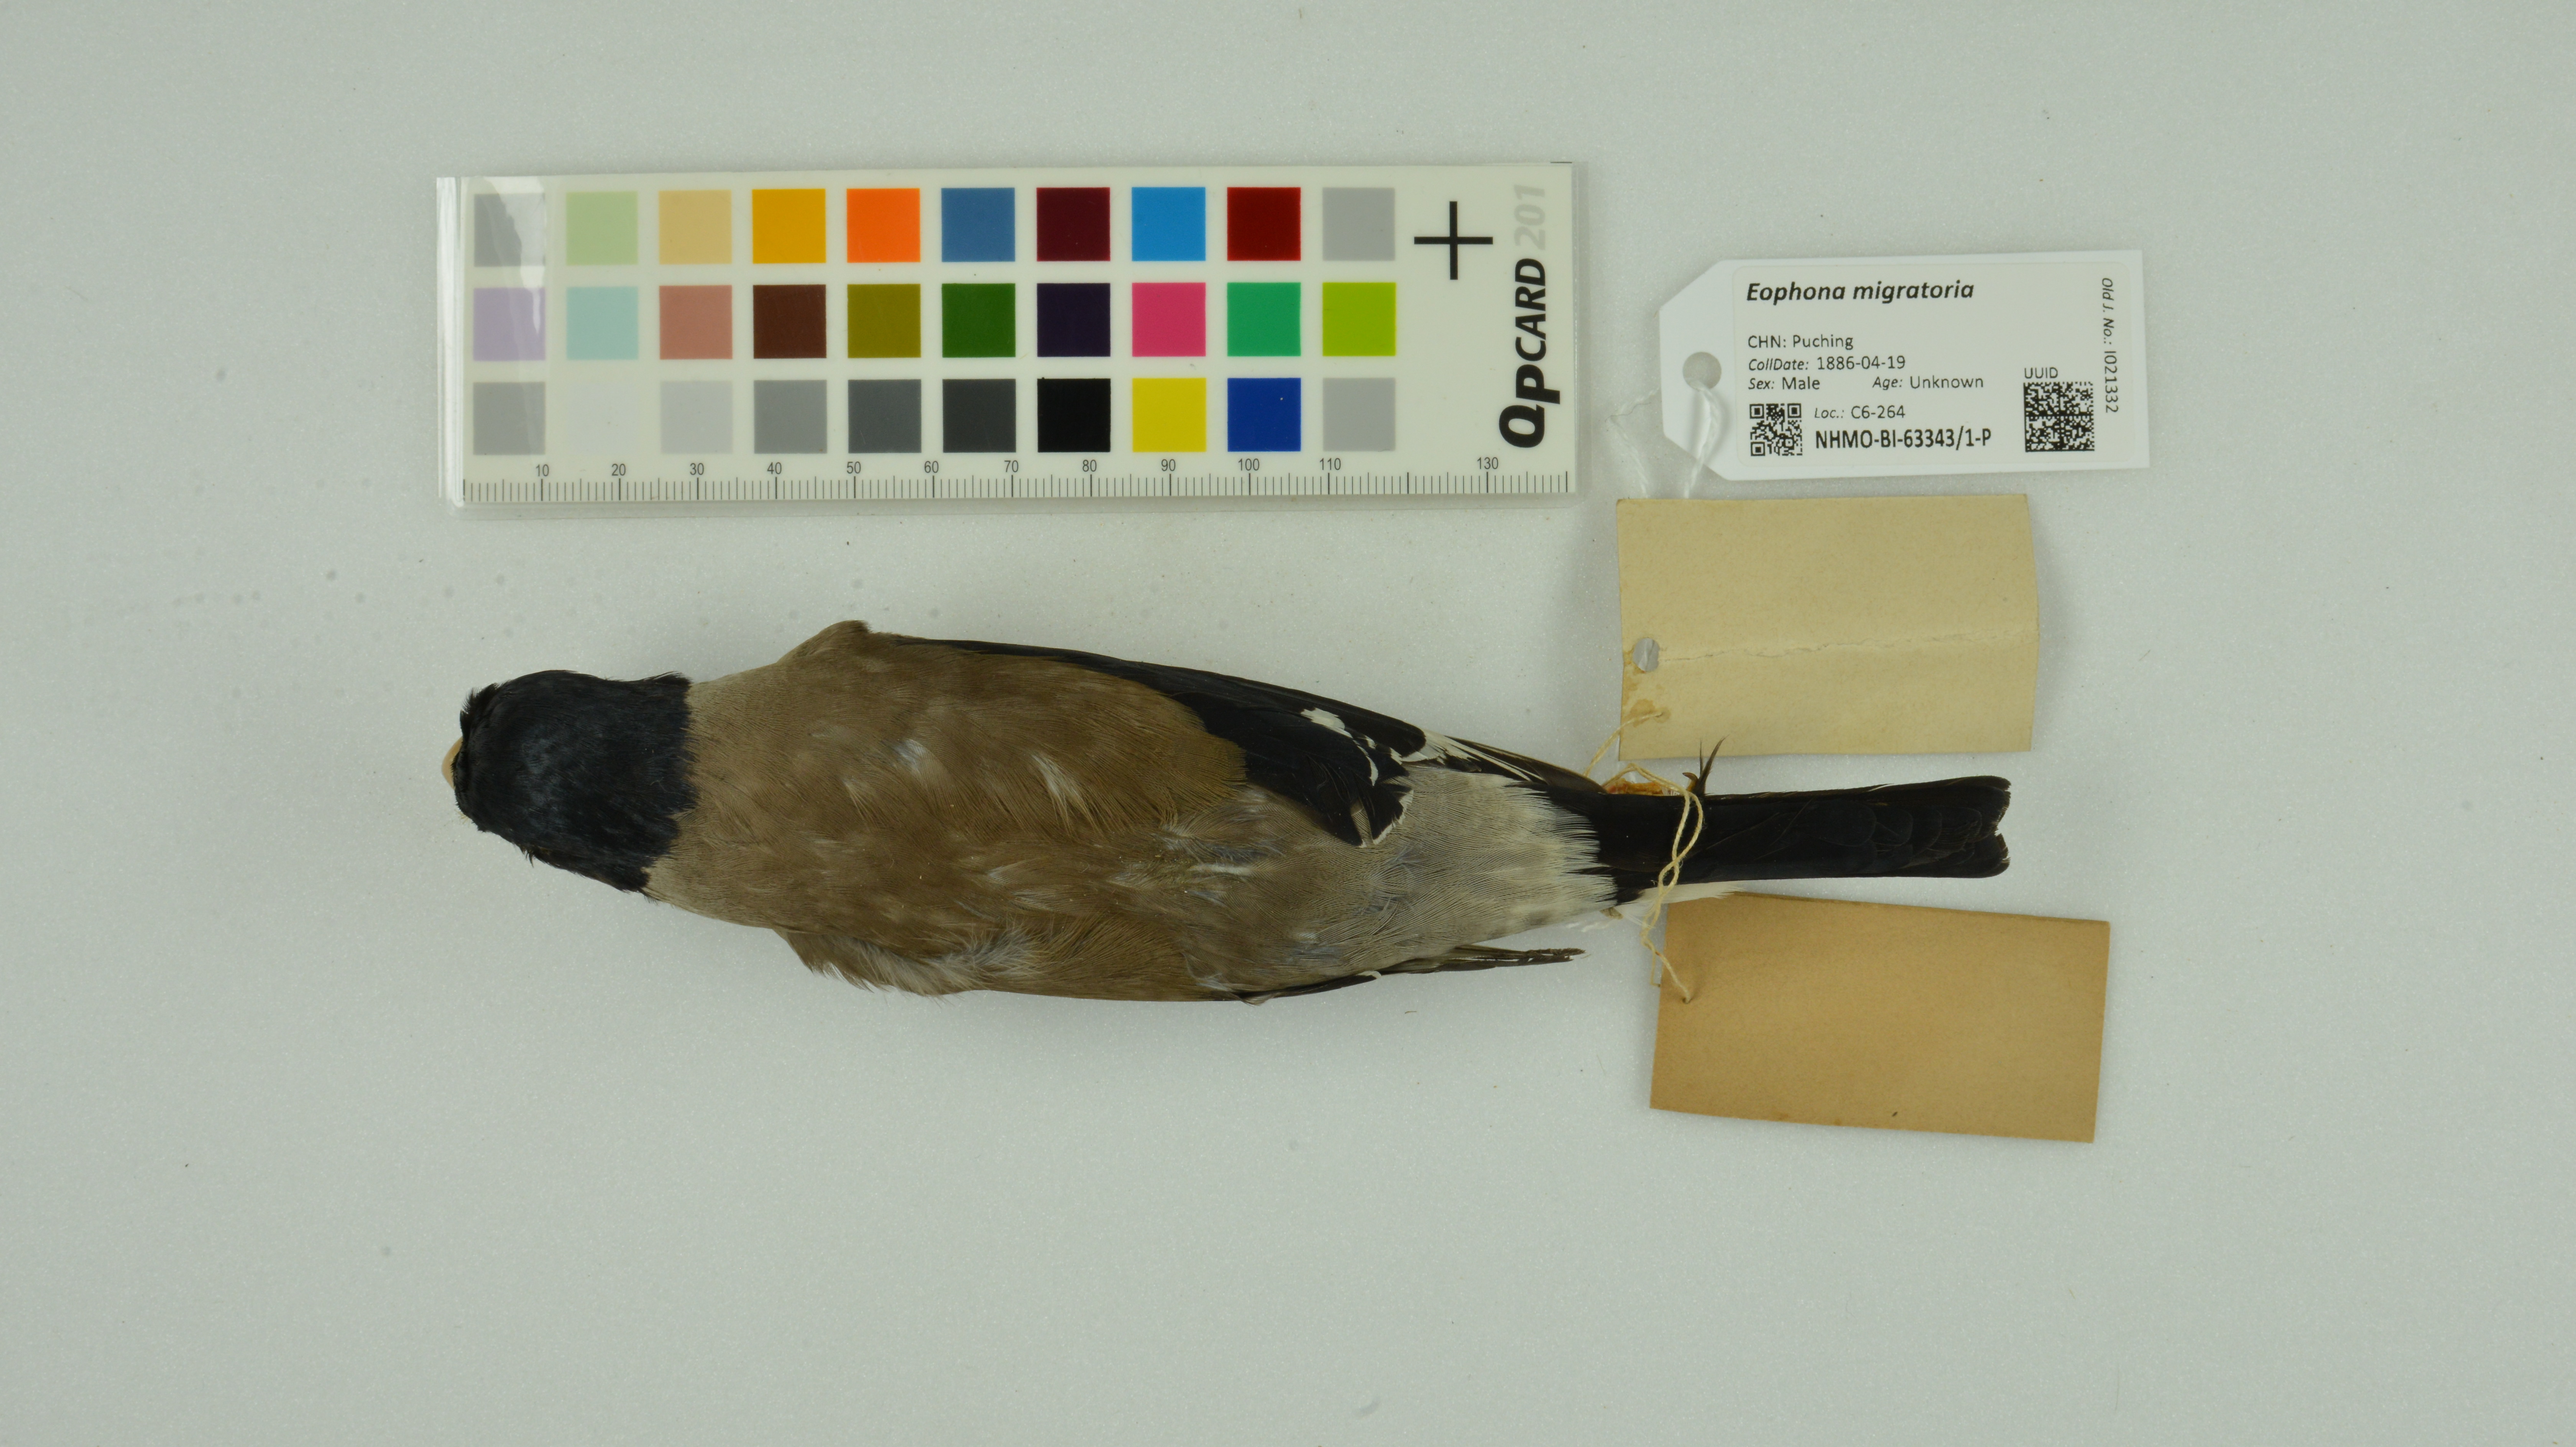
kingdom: Animalia
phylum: Chordata
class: Aves
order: Passeriformes
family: Fringillidae
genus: Eophona
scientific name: Eophona migratoria
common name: Yellow-billed grosbeak
